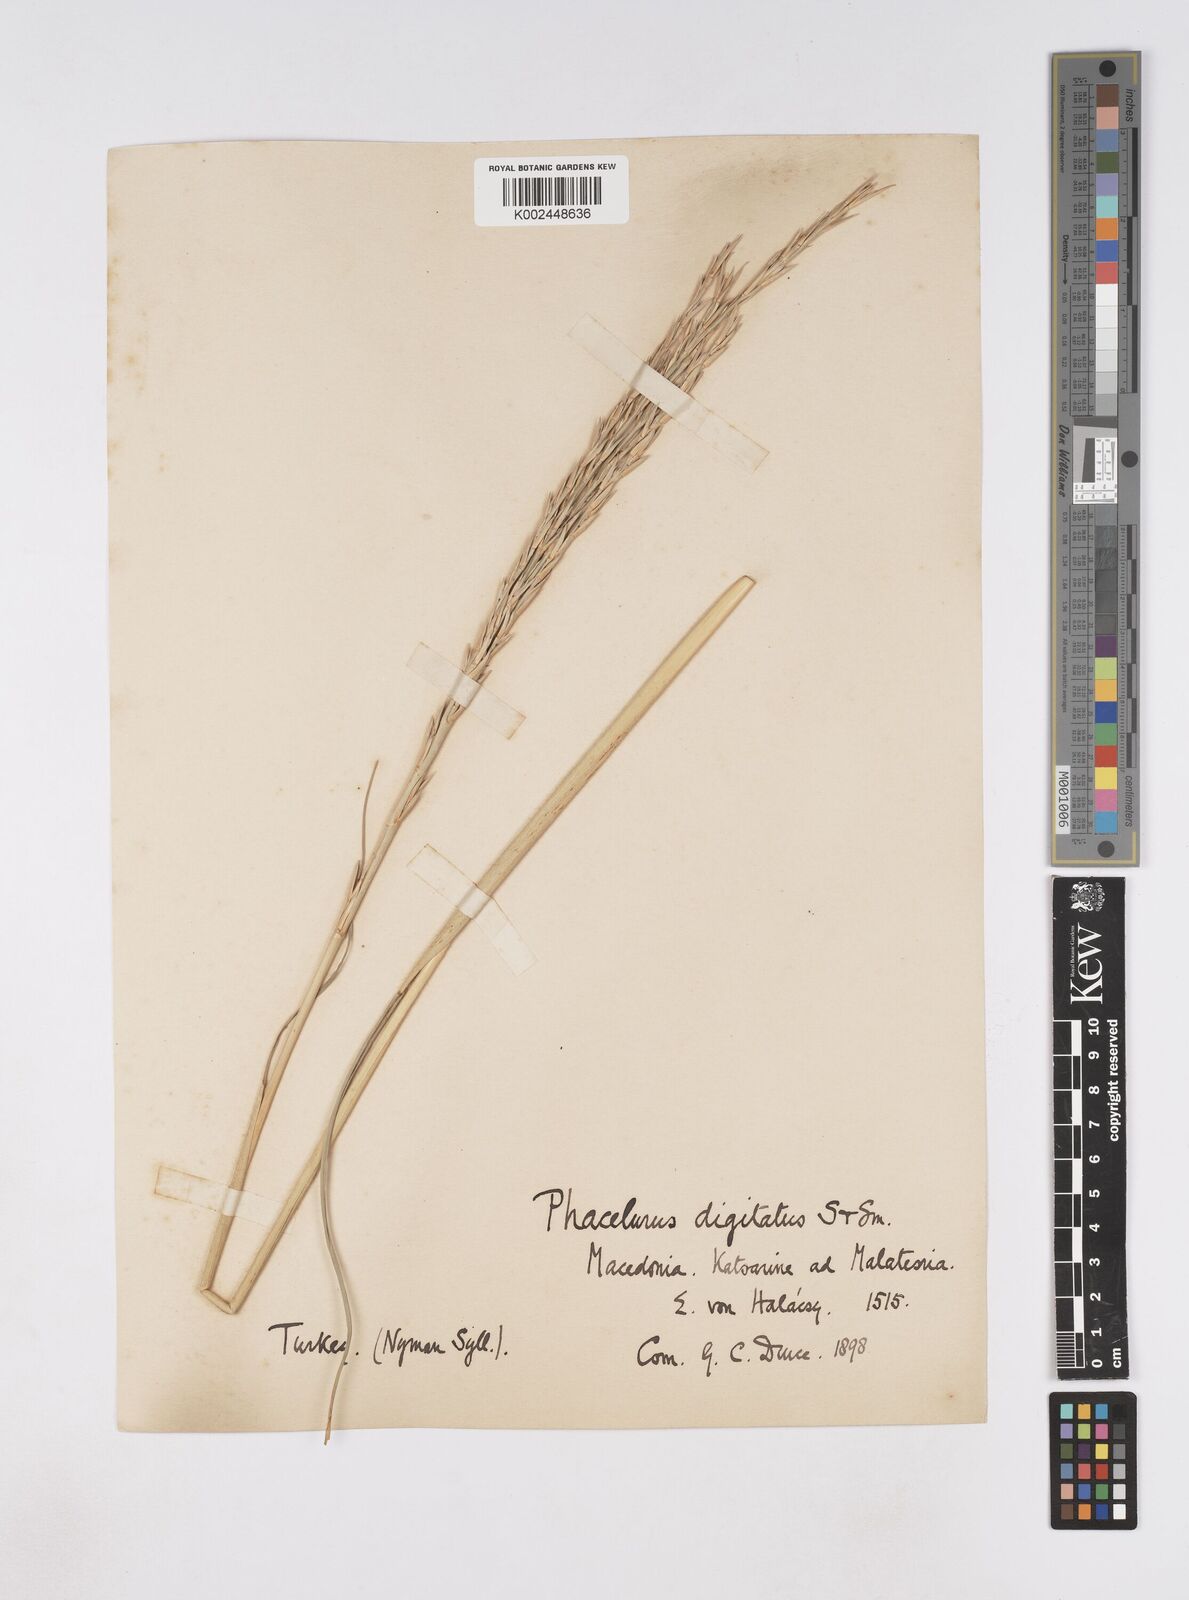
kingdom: Plantae
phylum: Tracheophyta
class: Liliopsida
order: Poales
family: Poaceae
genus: Phacelurus
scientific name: Phacelurus digitatus
